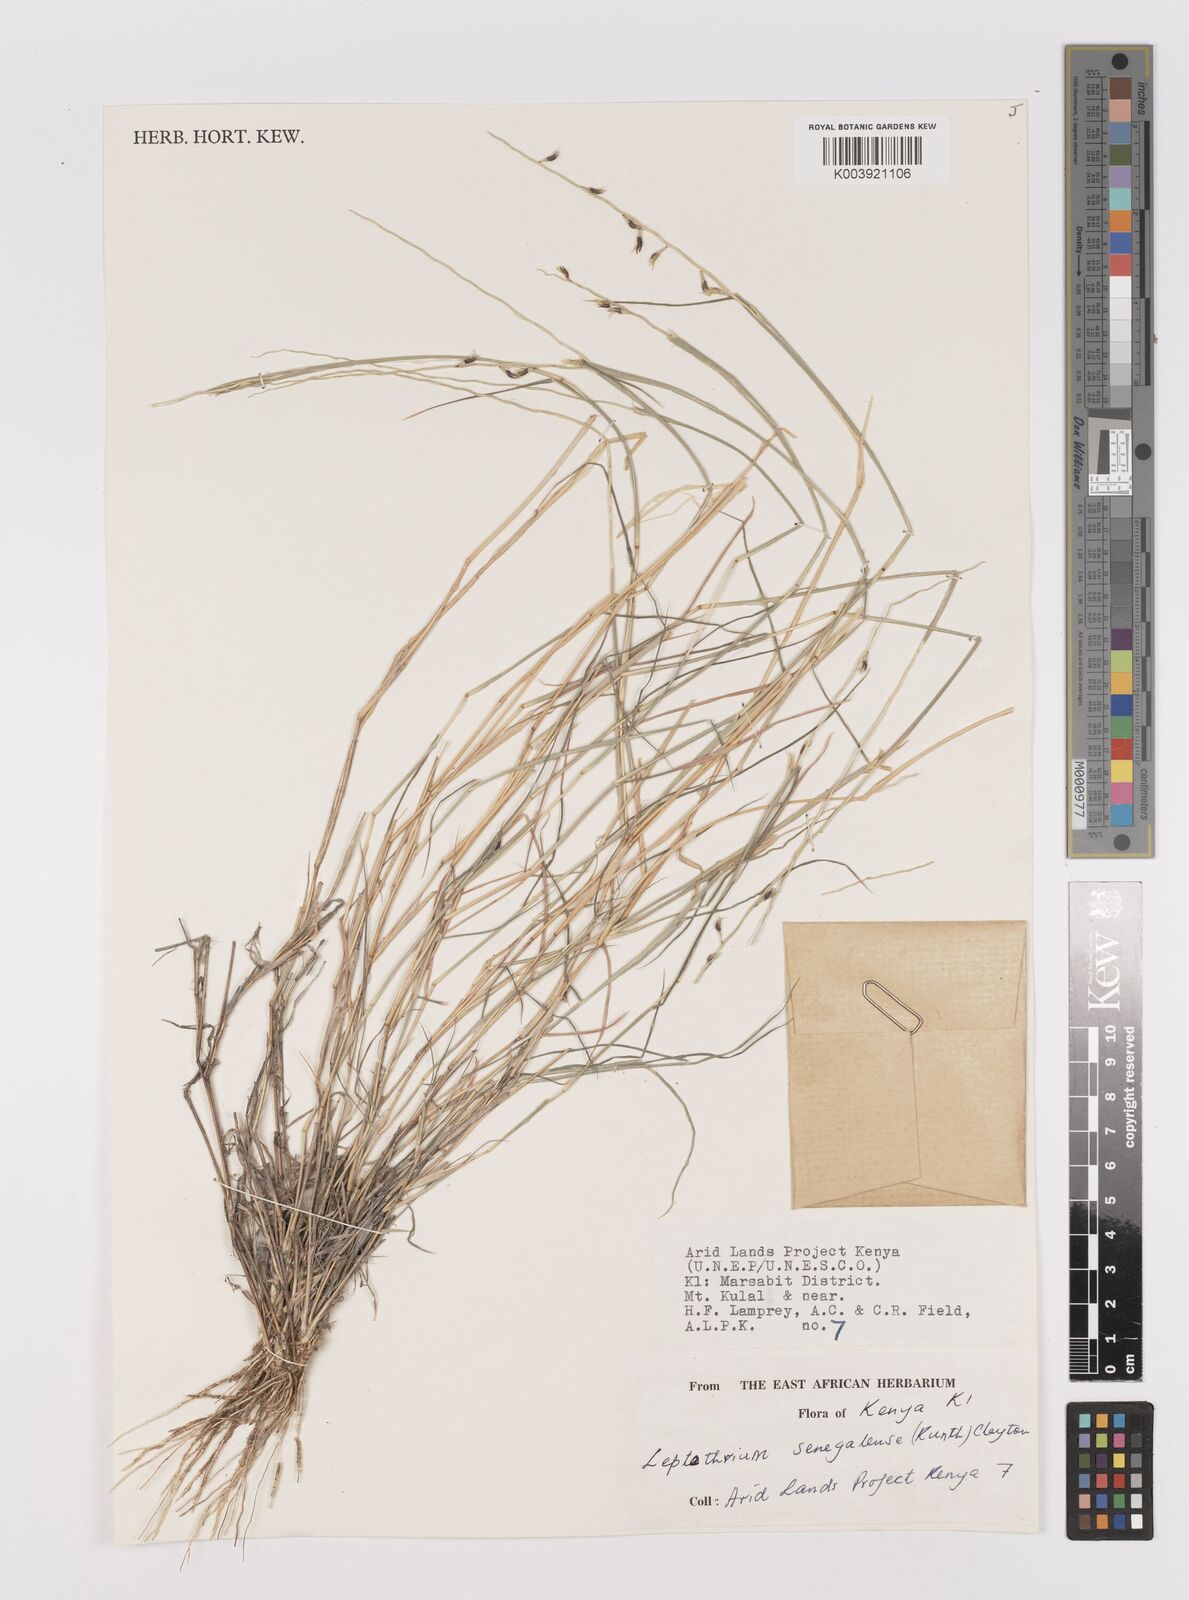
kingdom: Plantae
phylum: Tracheophyta
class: Liliopsida
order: Poales
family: Poaceae
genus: Leptothrium
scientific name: Leptothrium senegalense
